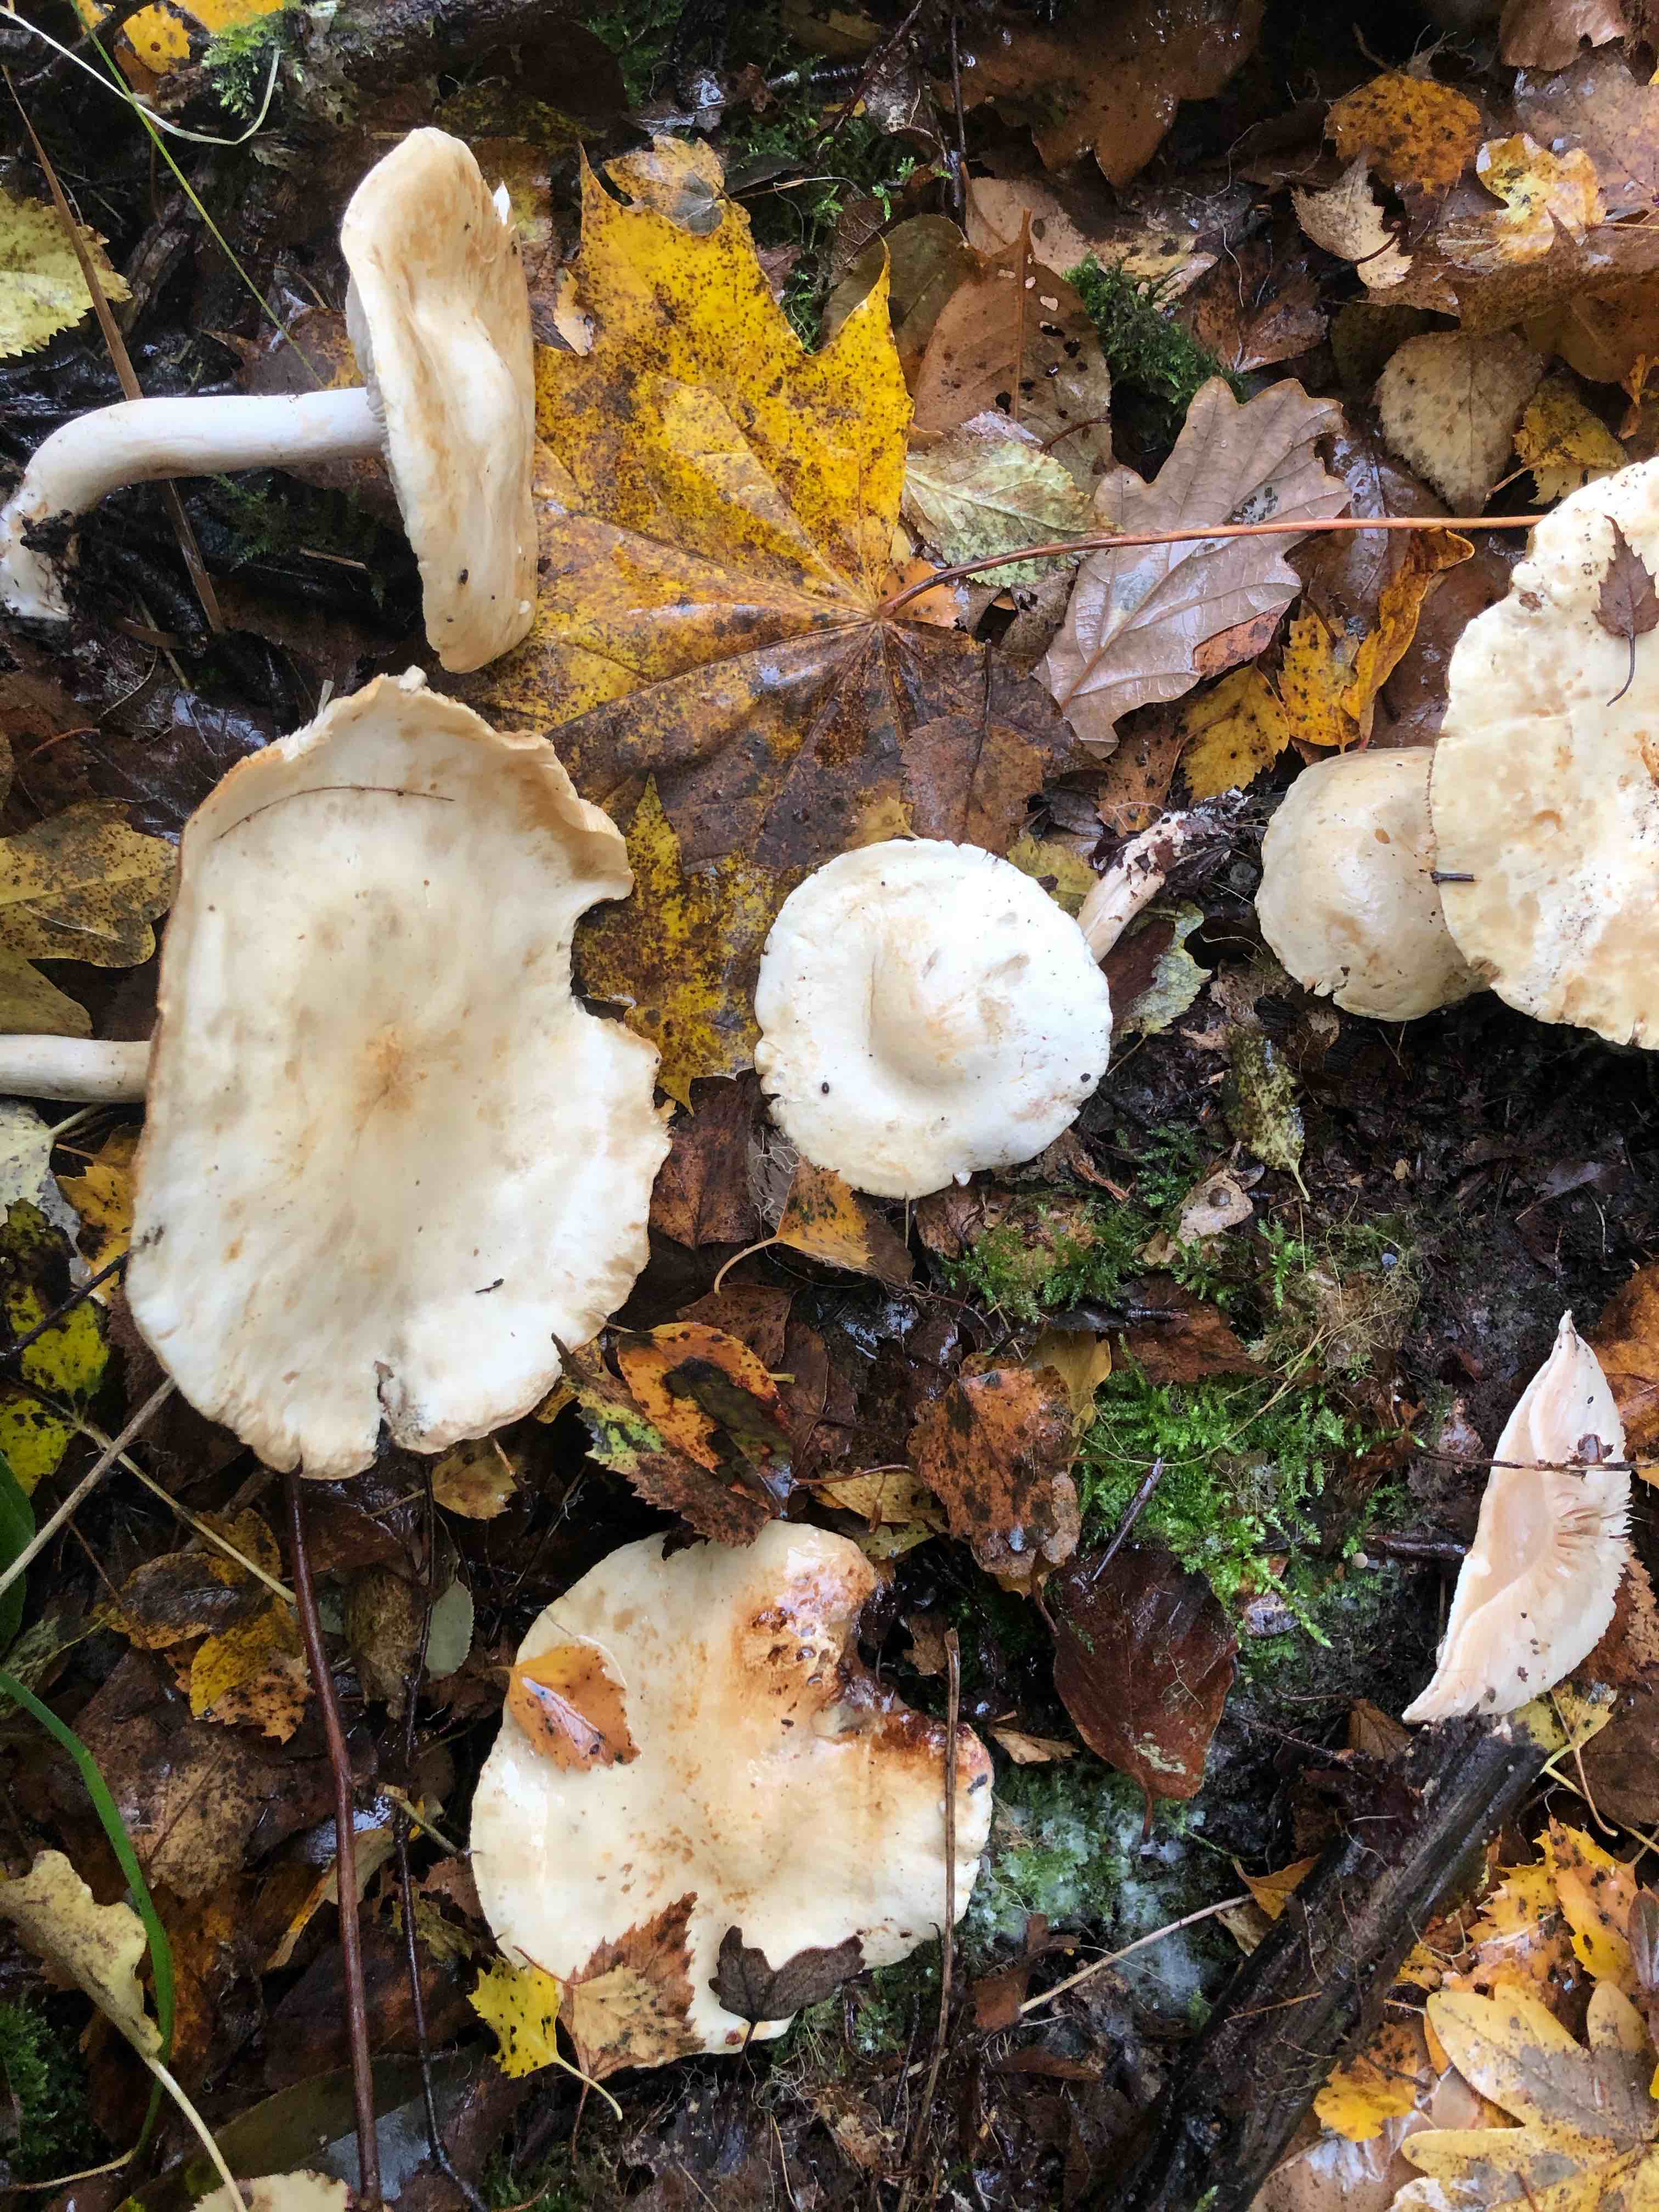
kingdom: Fungi
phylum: Basidiomycota
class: Agaricomycetes
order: Agaricales
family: Tricholomataceae
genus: Tricholoma
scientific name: Tricholoma stiparophyllum
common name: hvid ridderhat
